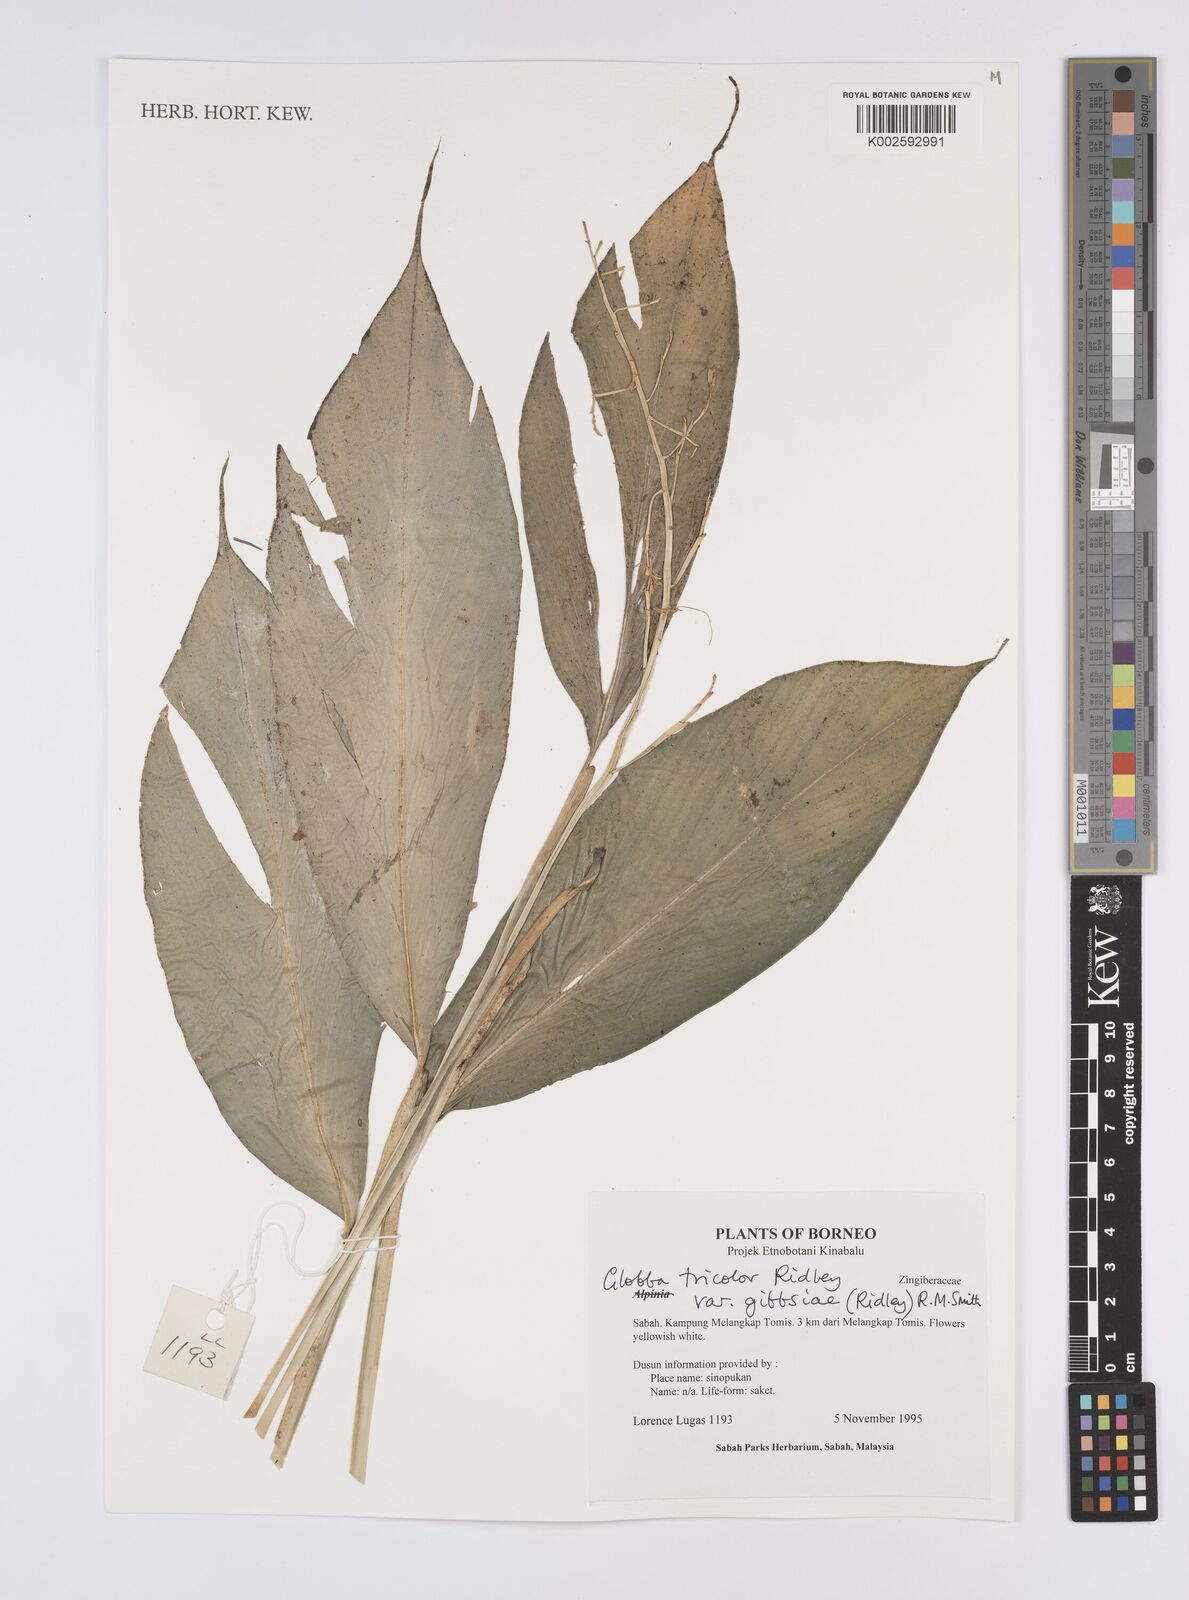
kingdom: Plantae
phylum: Tracheophyta
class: Liliopsida
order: Zingiberales
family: Zingiberaceae
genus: Globba
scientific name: Globba tricolor
